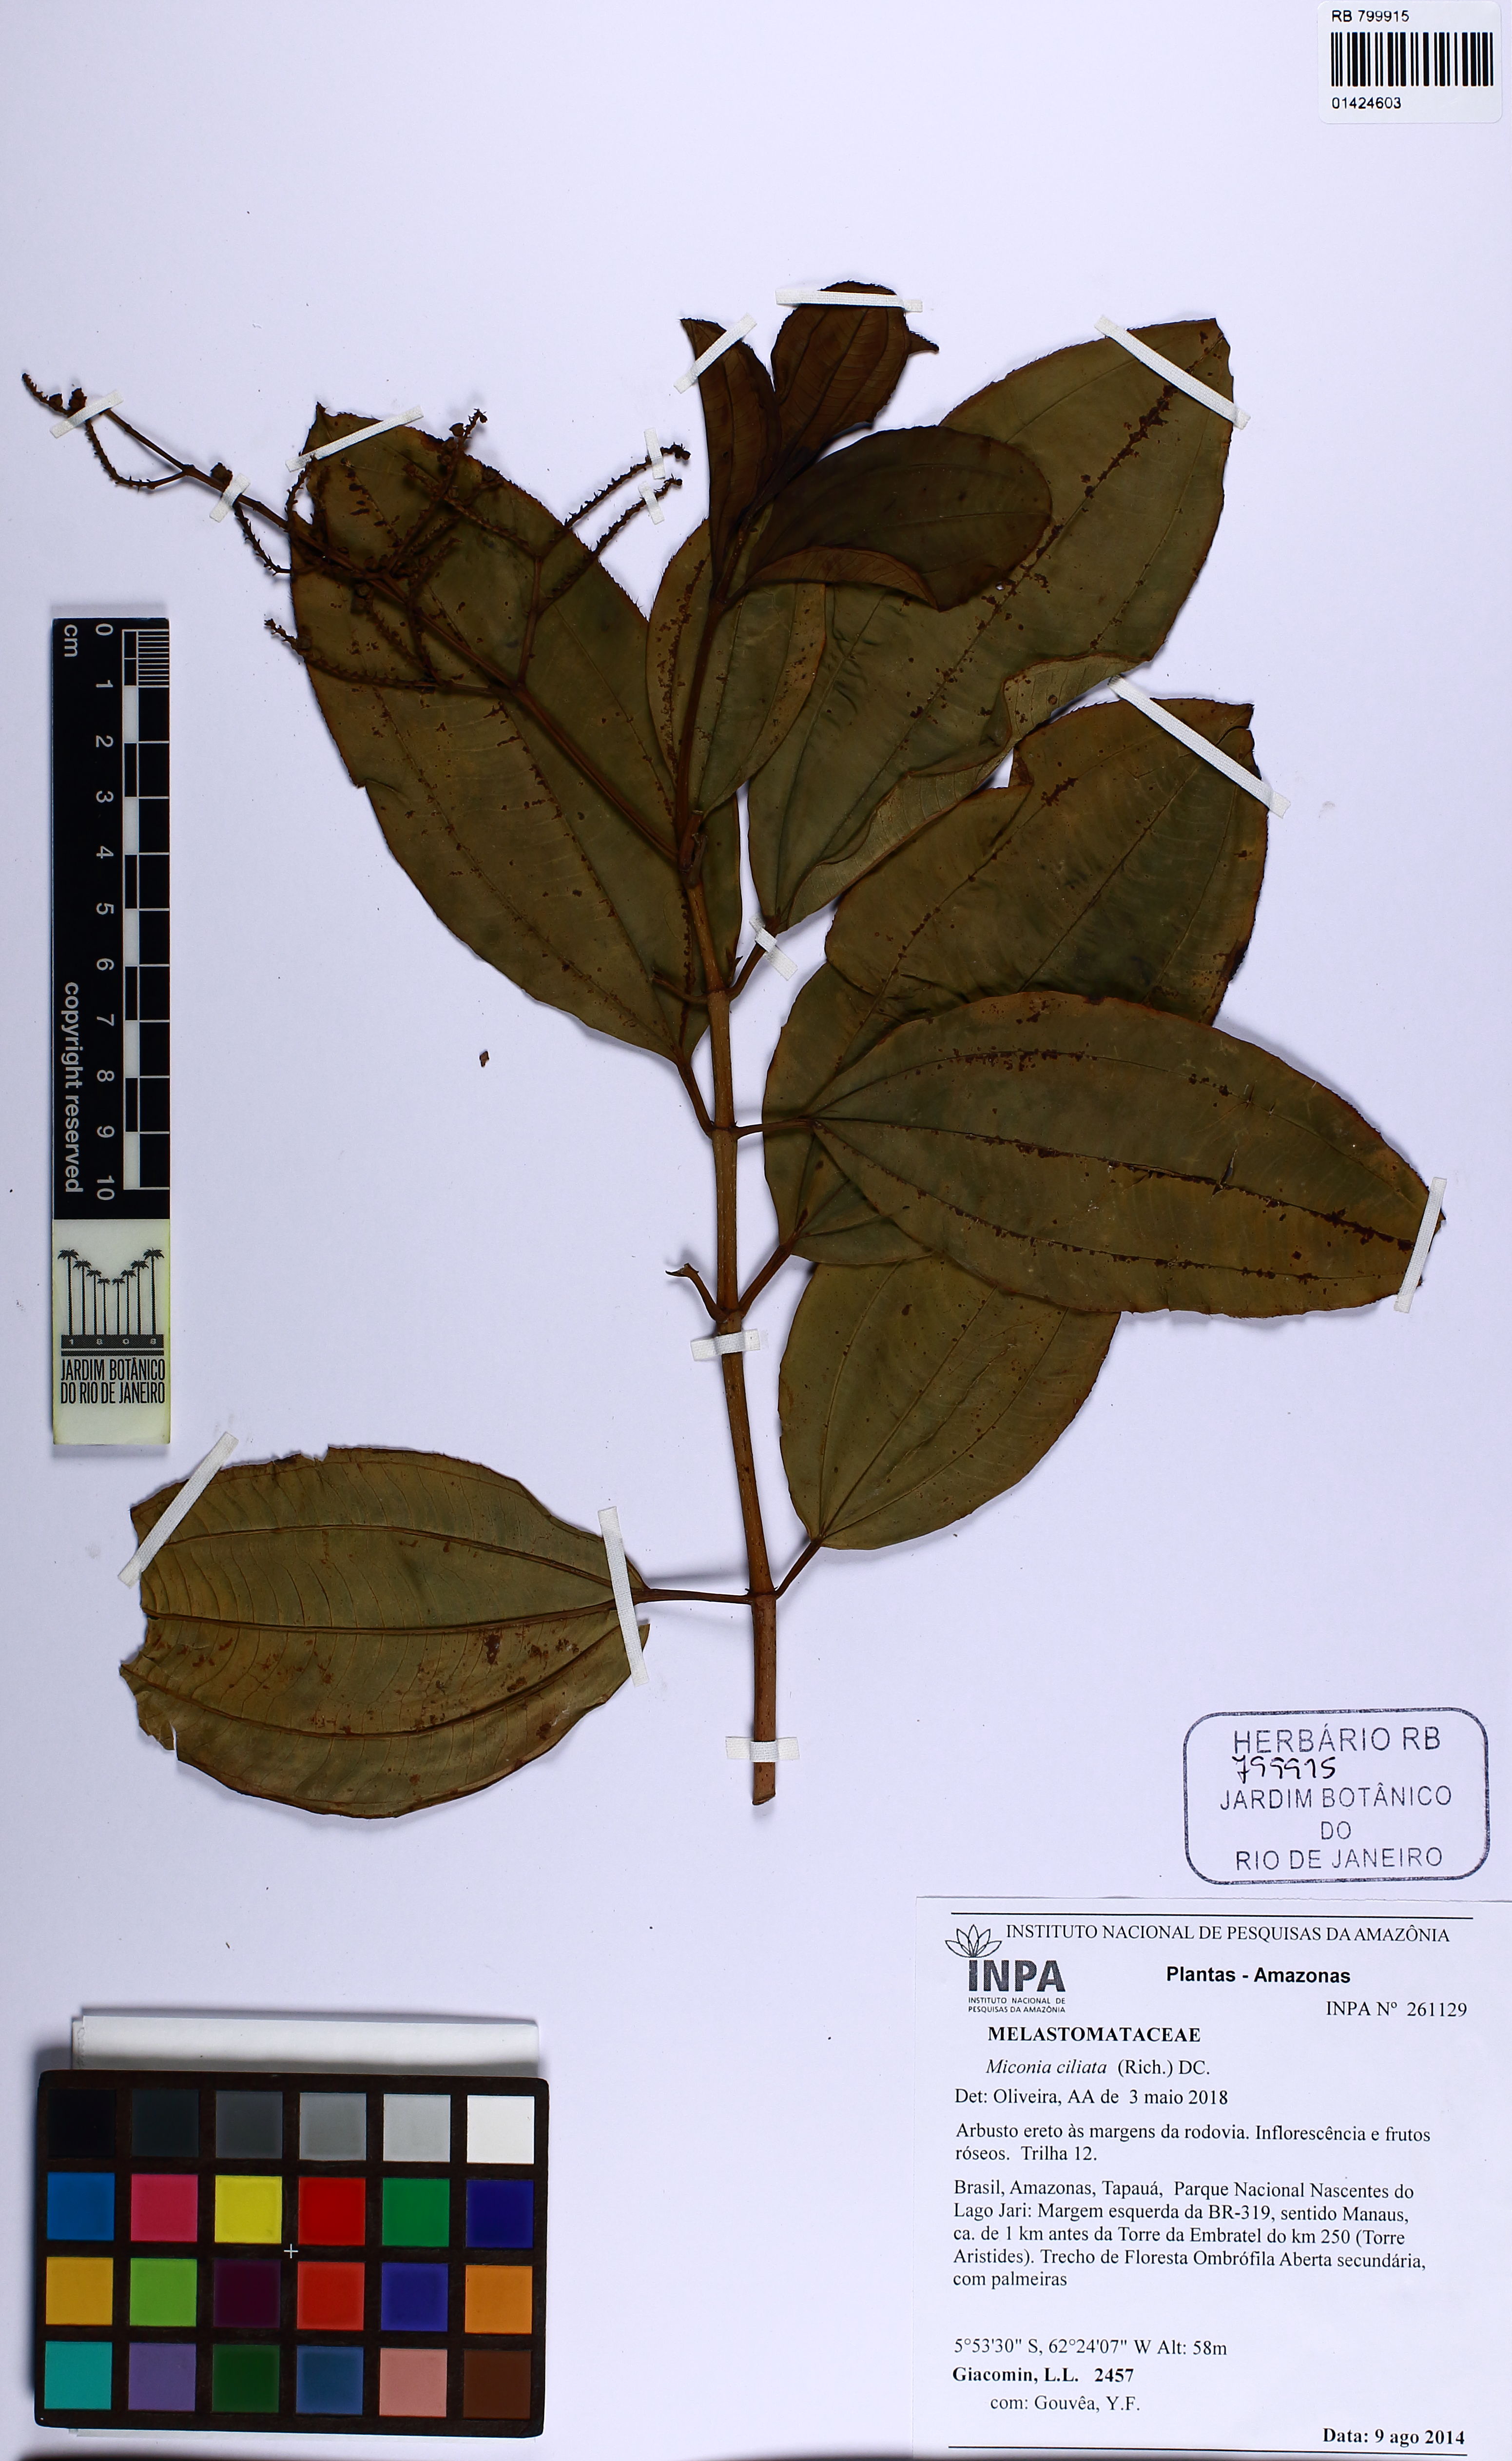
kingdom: Plantae
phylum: Tracheophyta
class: Magnoliopsida
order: Myrtales
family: Melastomataceae
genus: Miconia
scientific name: Miconia ciliata
